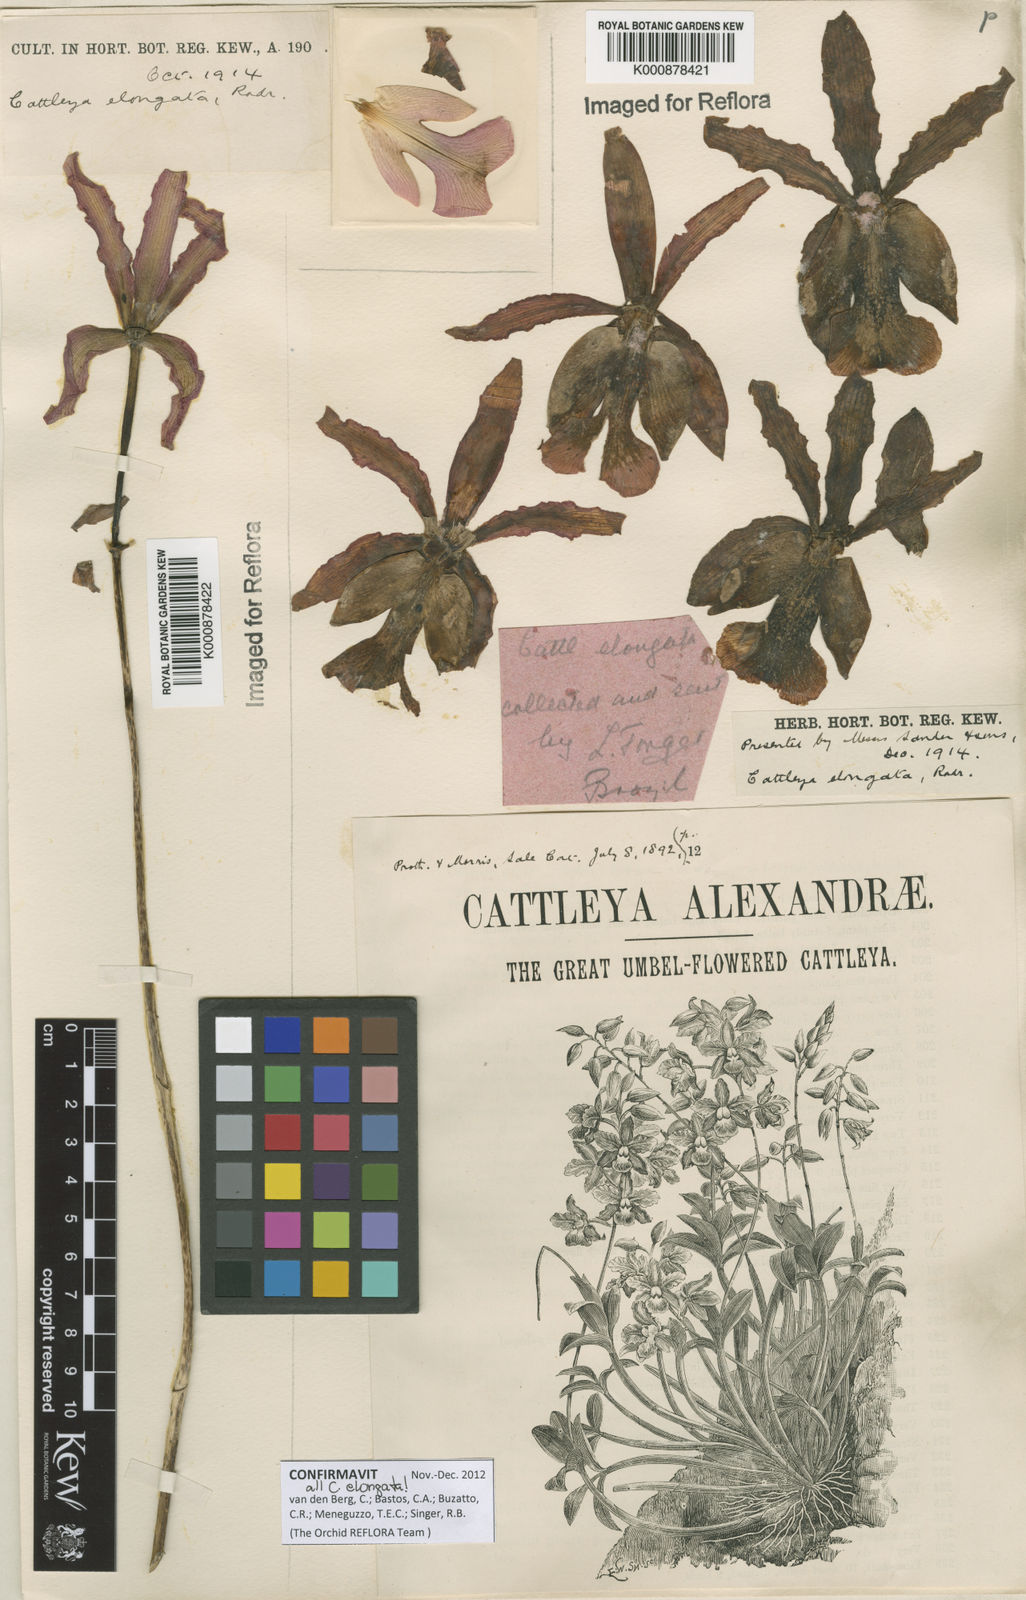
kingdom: Plantae
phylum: Tracheophyta
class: Liliopsida
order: Asparagales
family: Orchidaceae
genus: Cattleya
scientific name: Cattleya elongata
